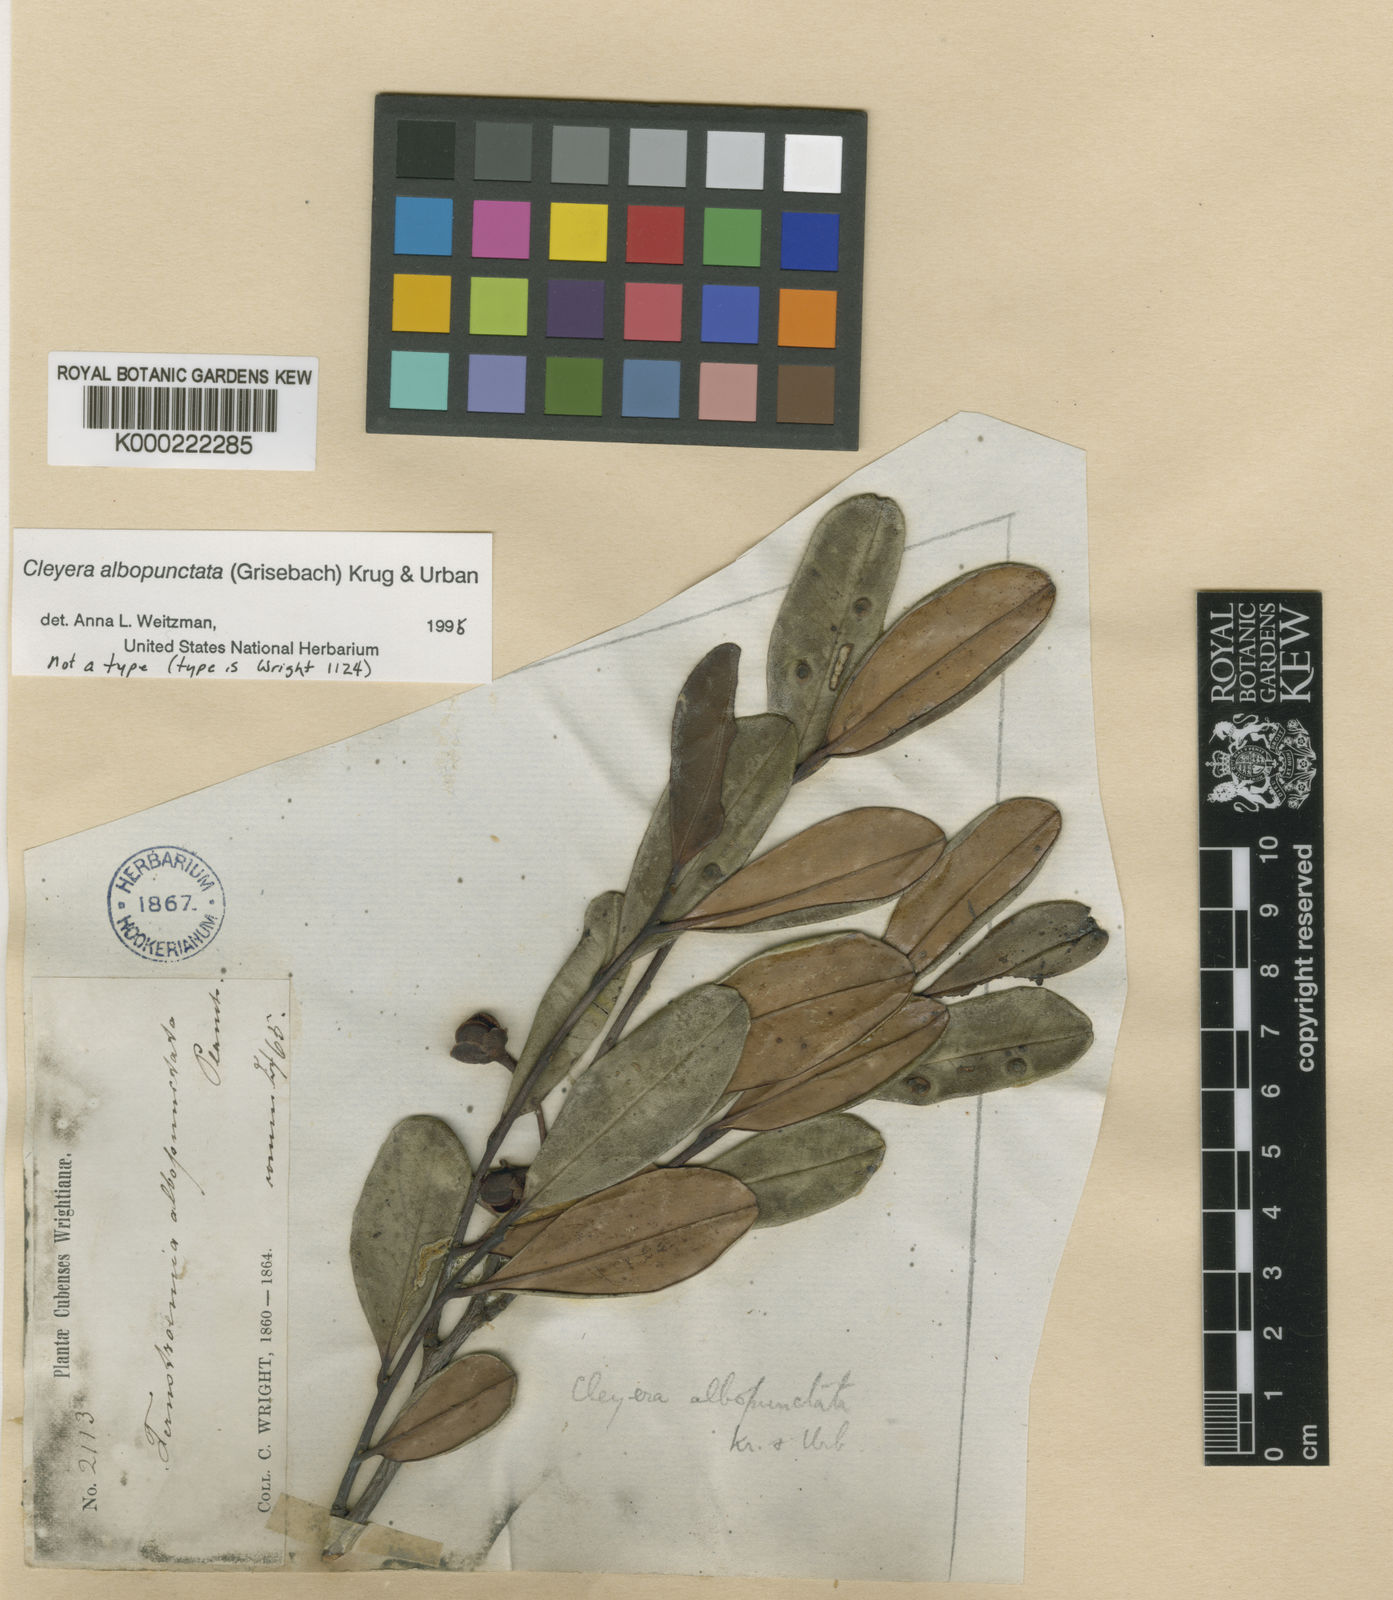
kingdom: Plantae
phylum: Tracheophyta
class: Magnoliopsida
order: Ericales
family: Pentaphylacaceae
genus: Cleyera
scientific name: Cleyera albopunctata
